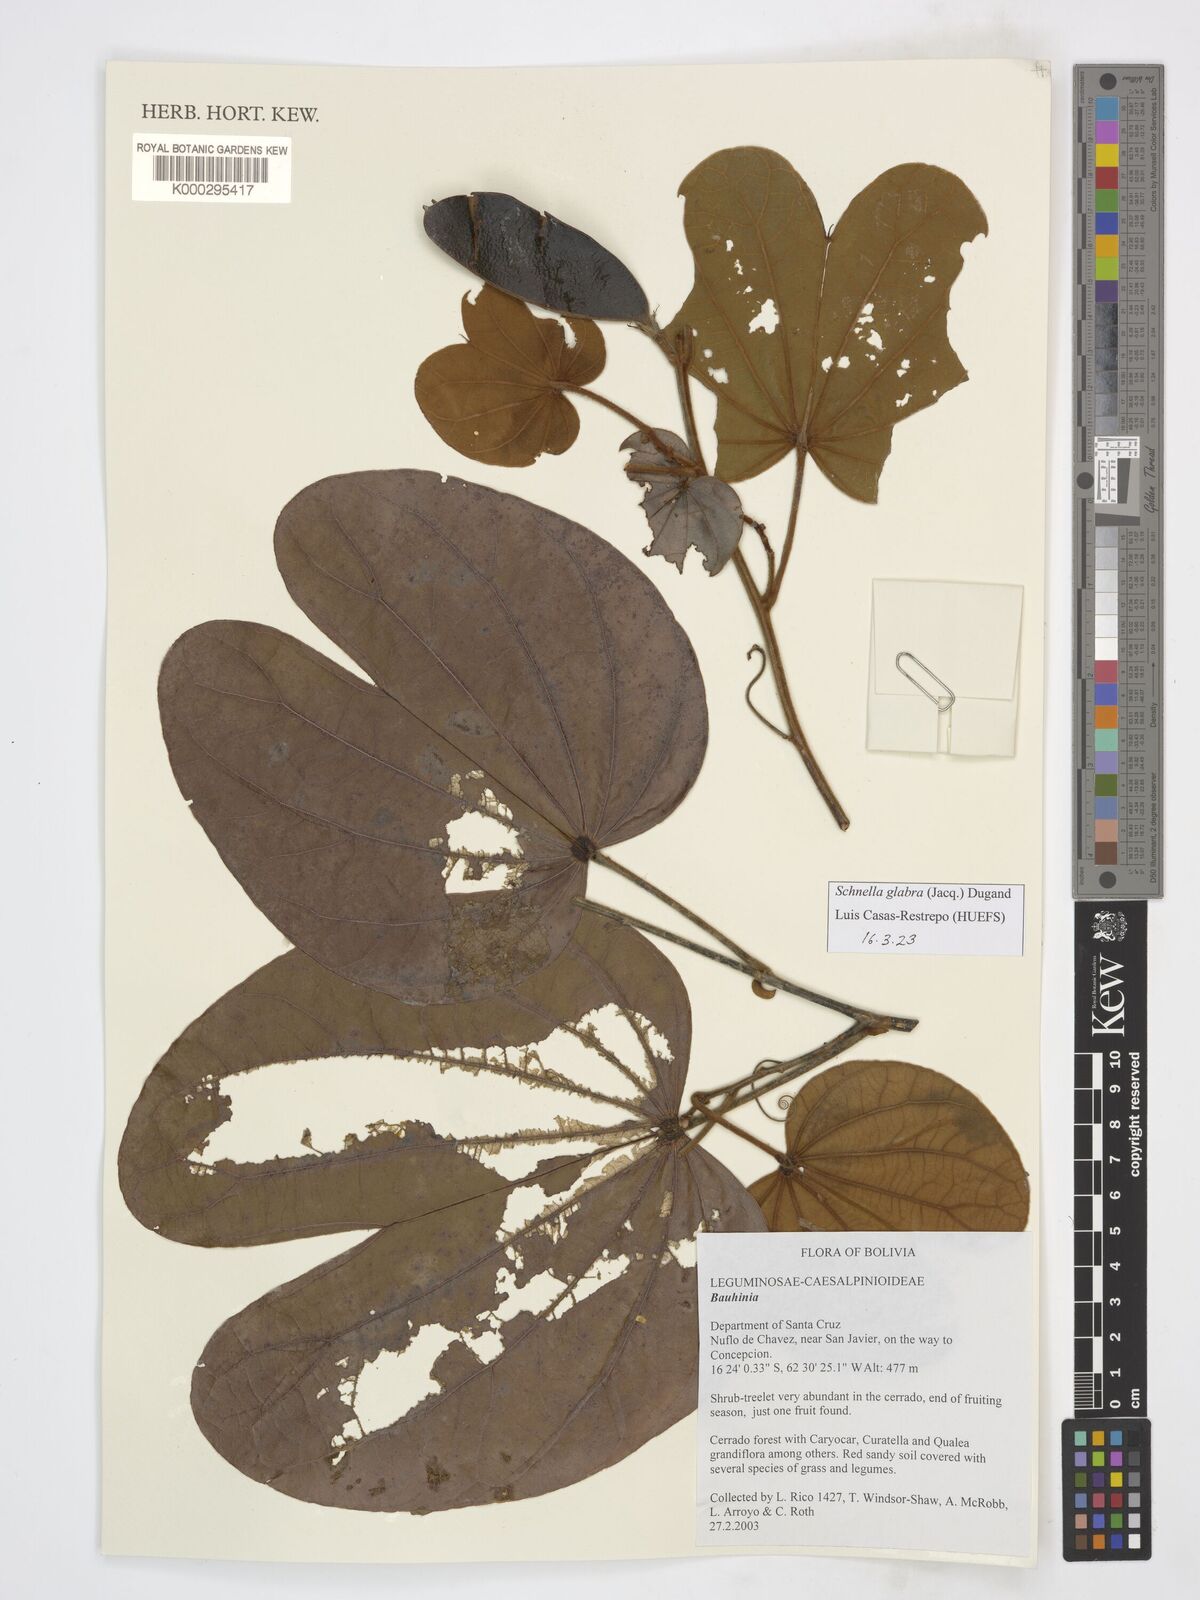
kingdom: Plantae
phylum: Tracheophyta
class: Magnoliopsida
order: Fabales
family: Fabaceae
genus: Bauhinia
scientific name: Bauhinia
